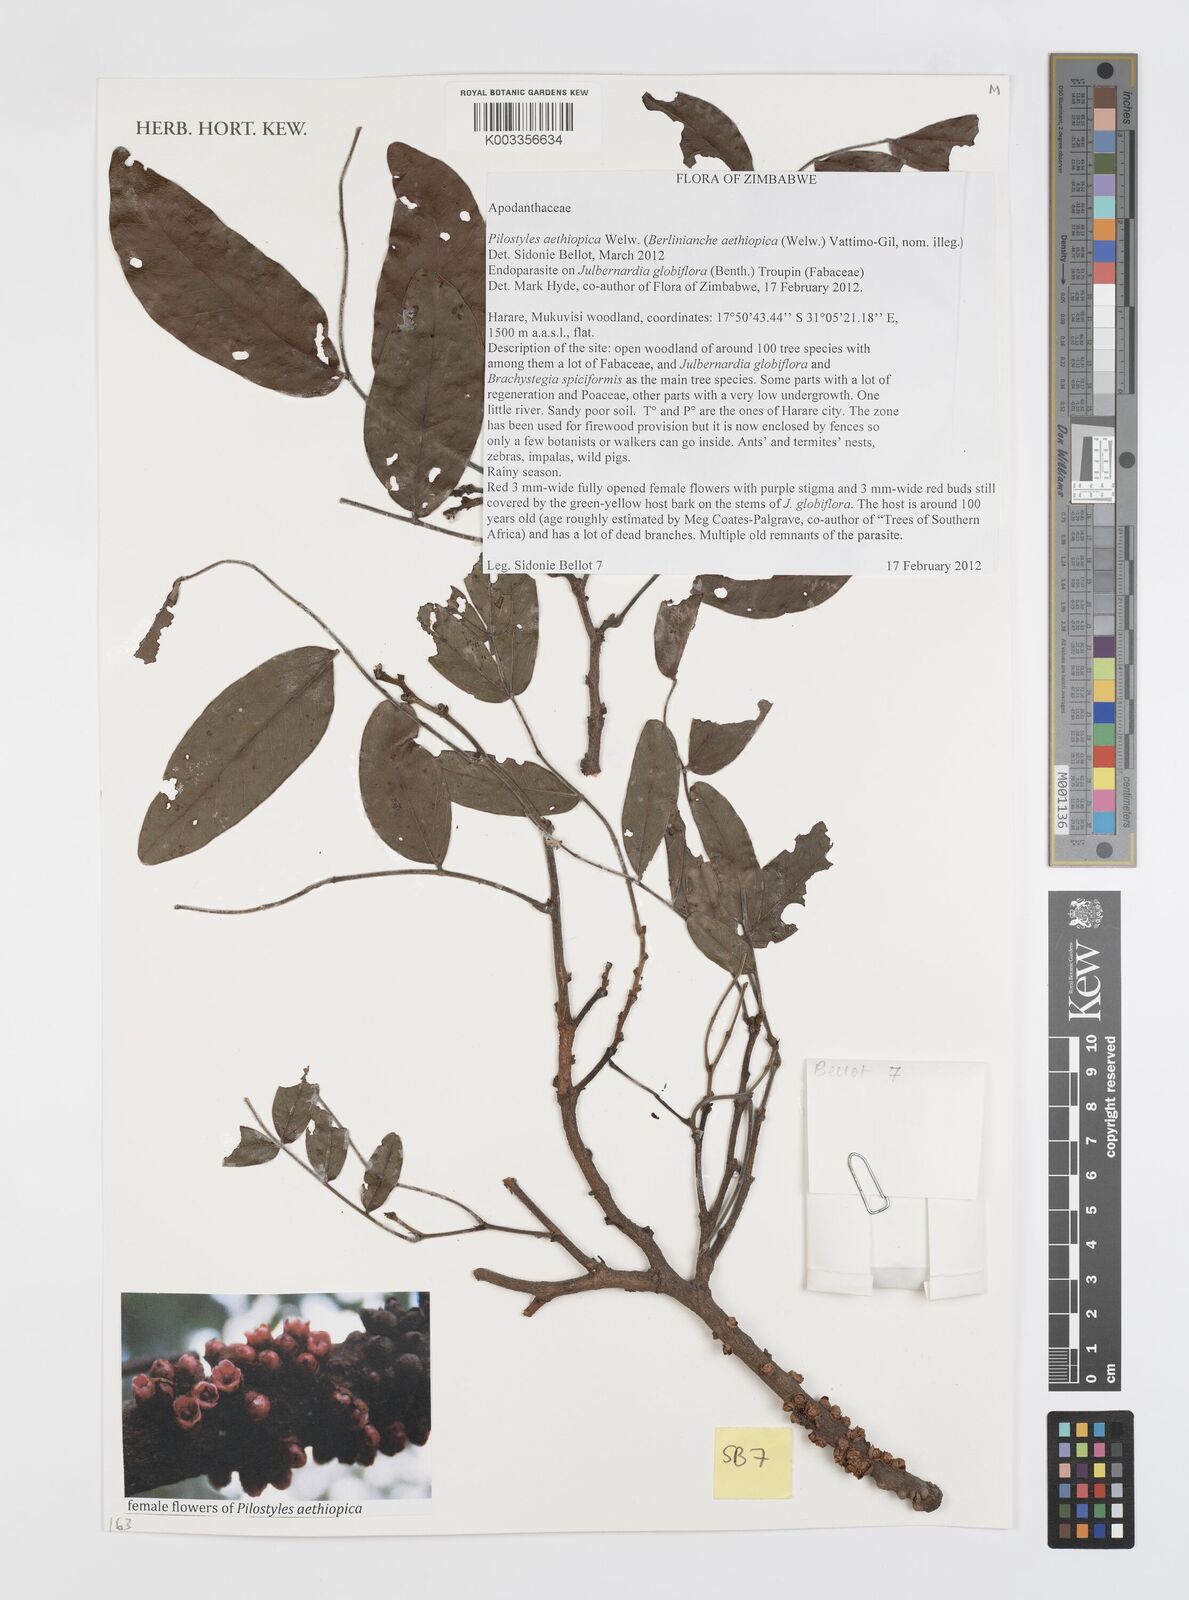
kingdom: Plantae
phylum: Tracheophyta
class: Magnoliopsida
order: Cucurbitales
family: Apodanthaceae
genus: Pilostyles
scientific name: Pilostyles aethiopica
